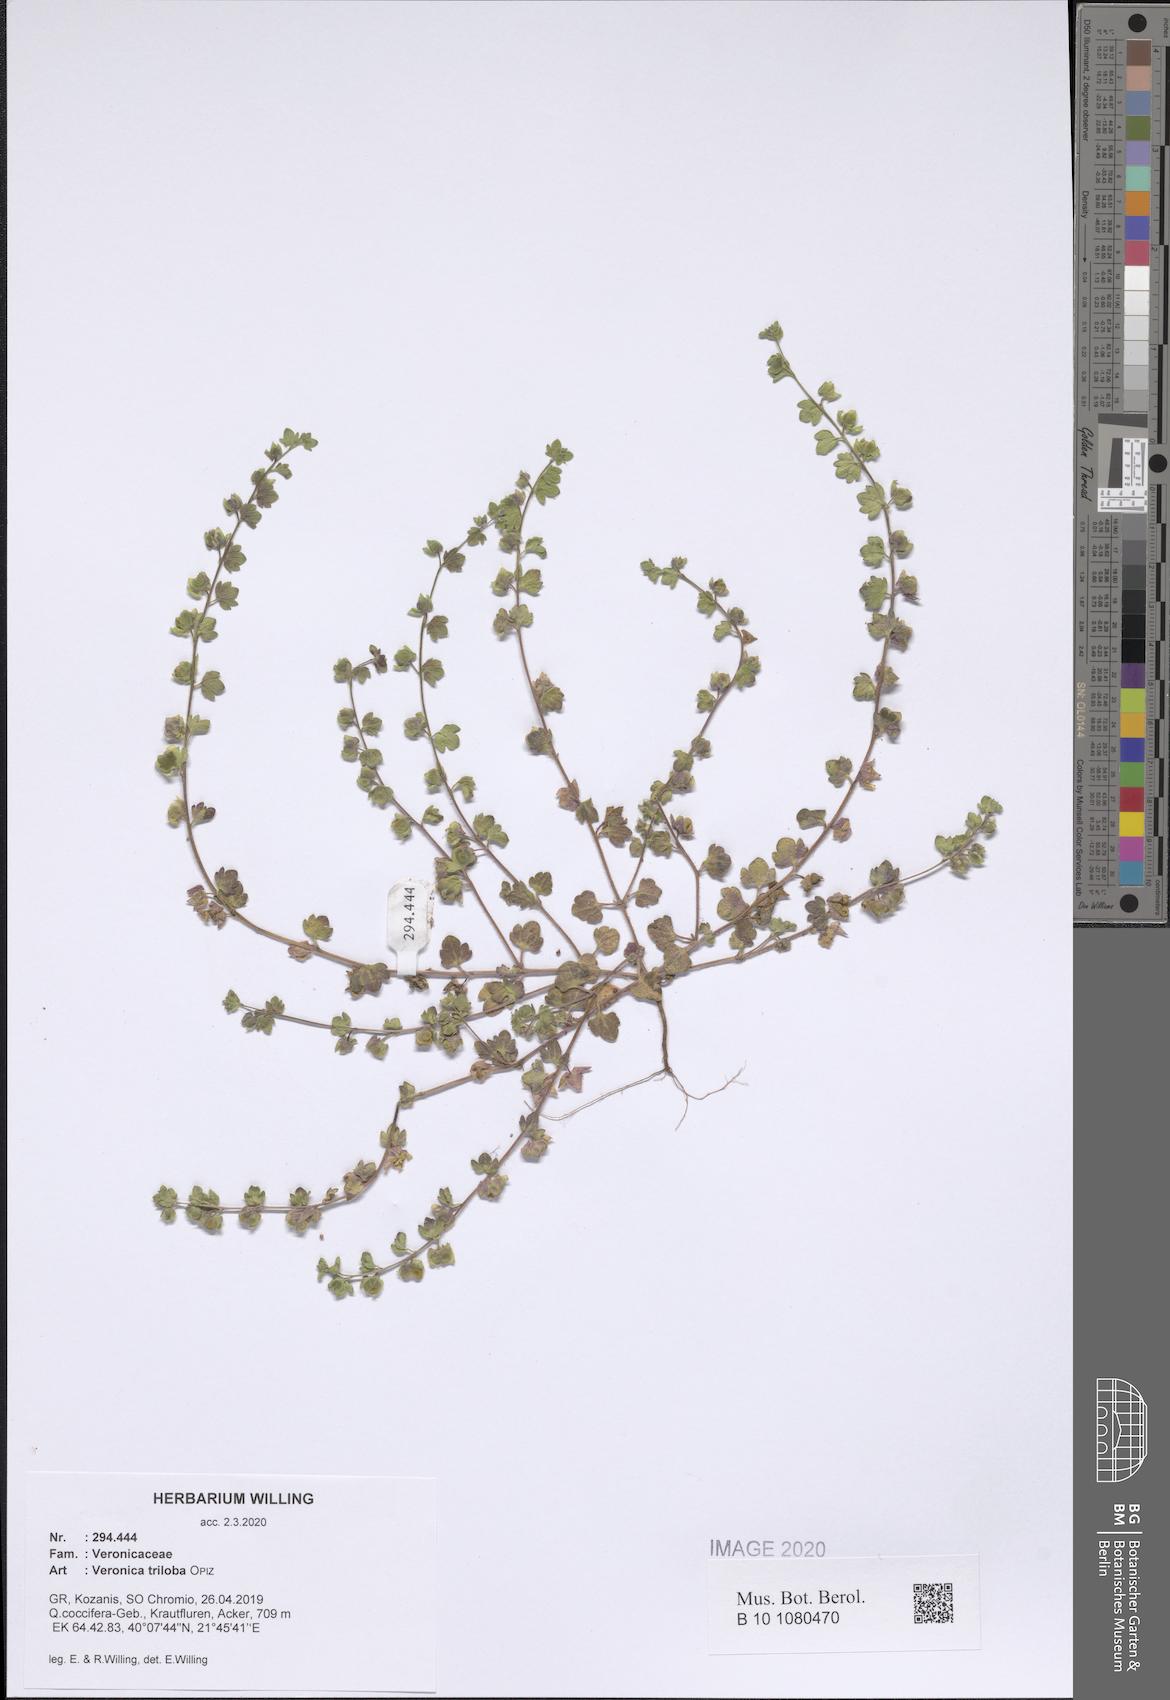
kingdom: Plantae
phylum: Tracheophyta
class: Magnoliopsida
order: Lamiales
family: Plantaginaceae
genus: Veronica
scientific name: Veronica triloba
